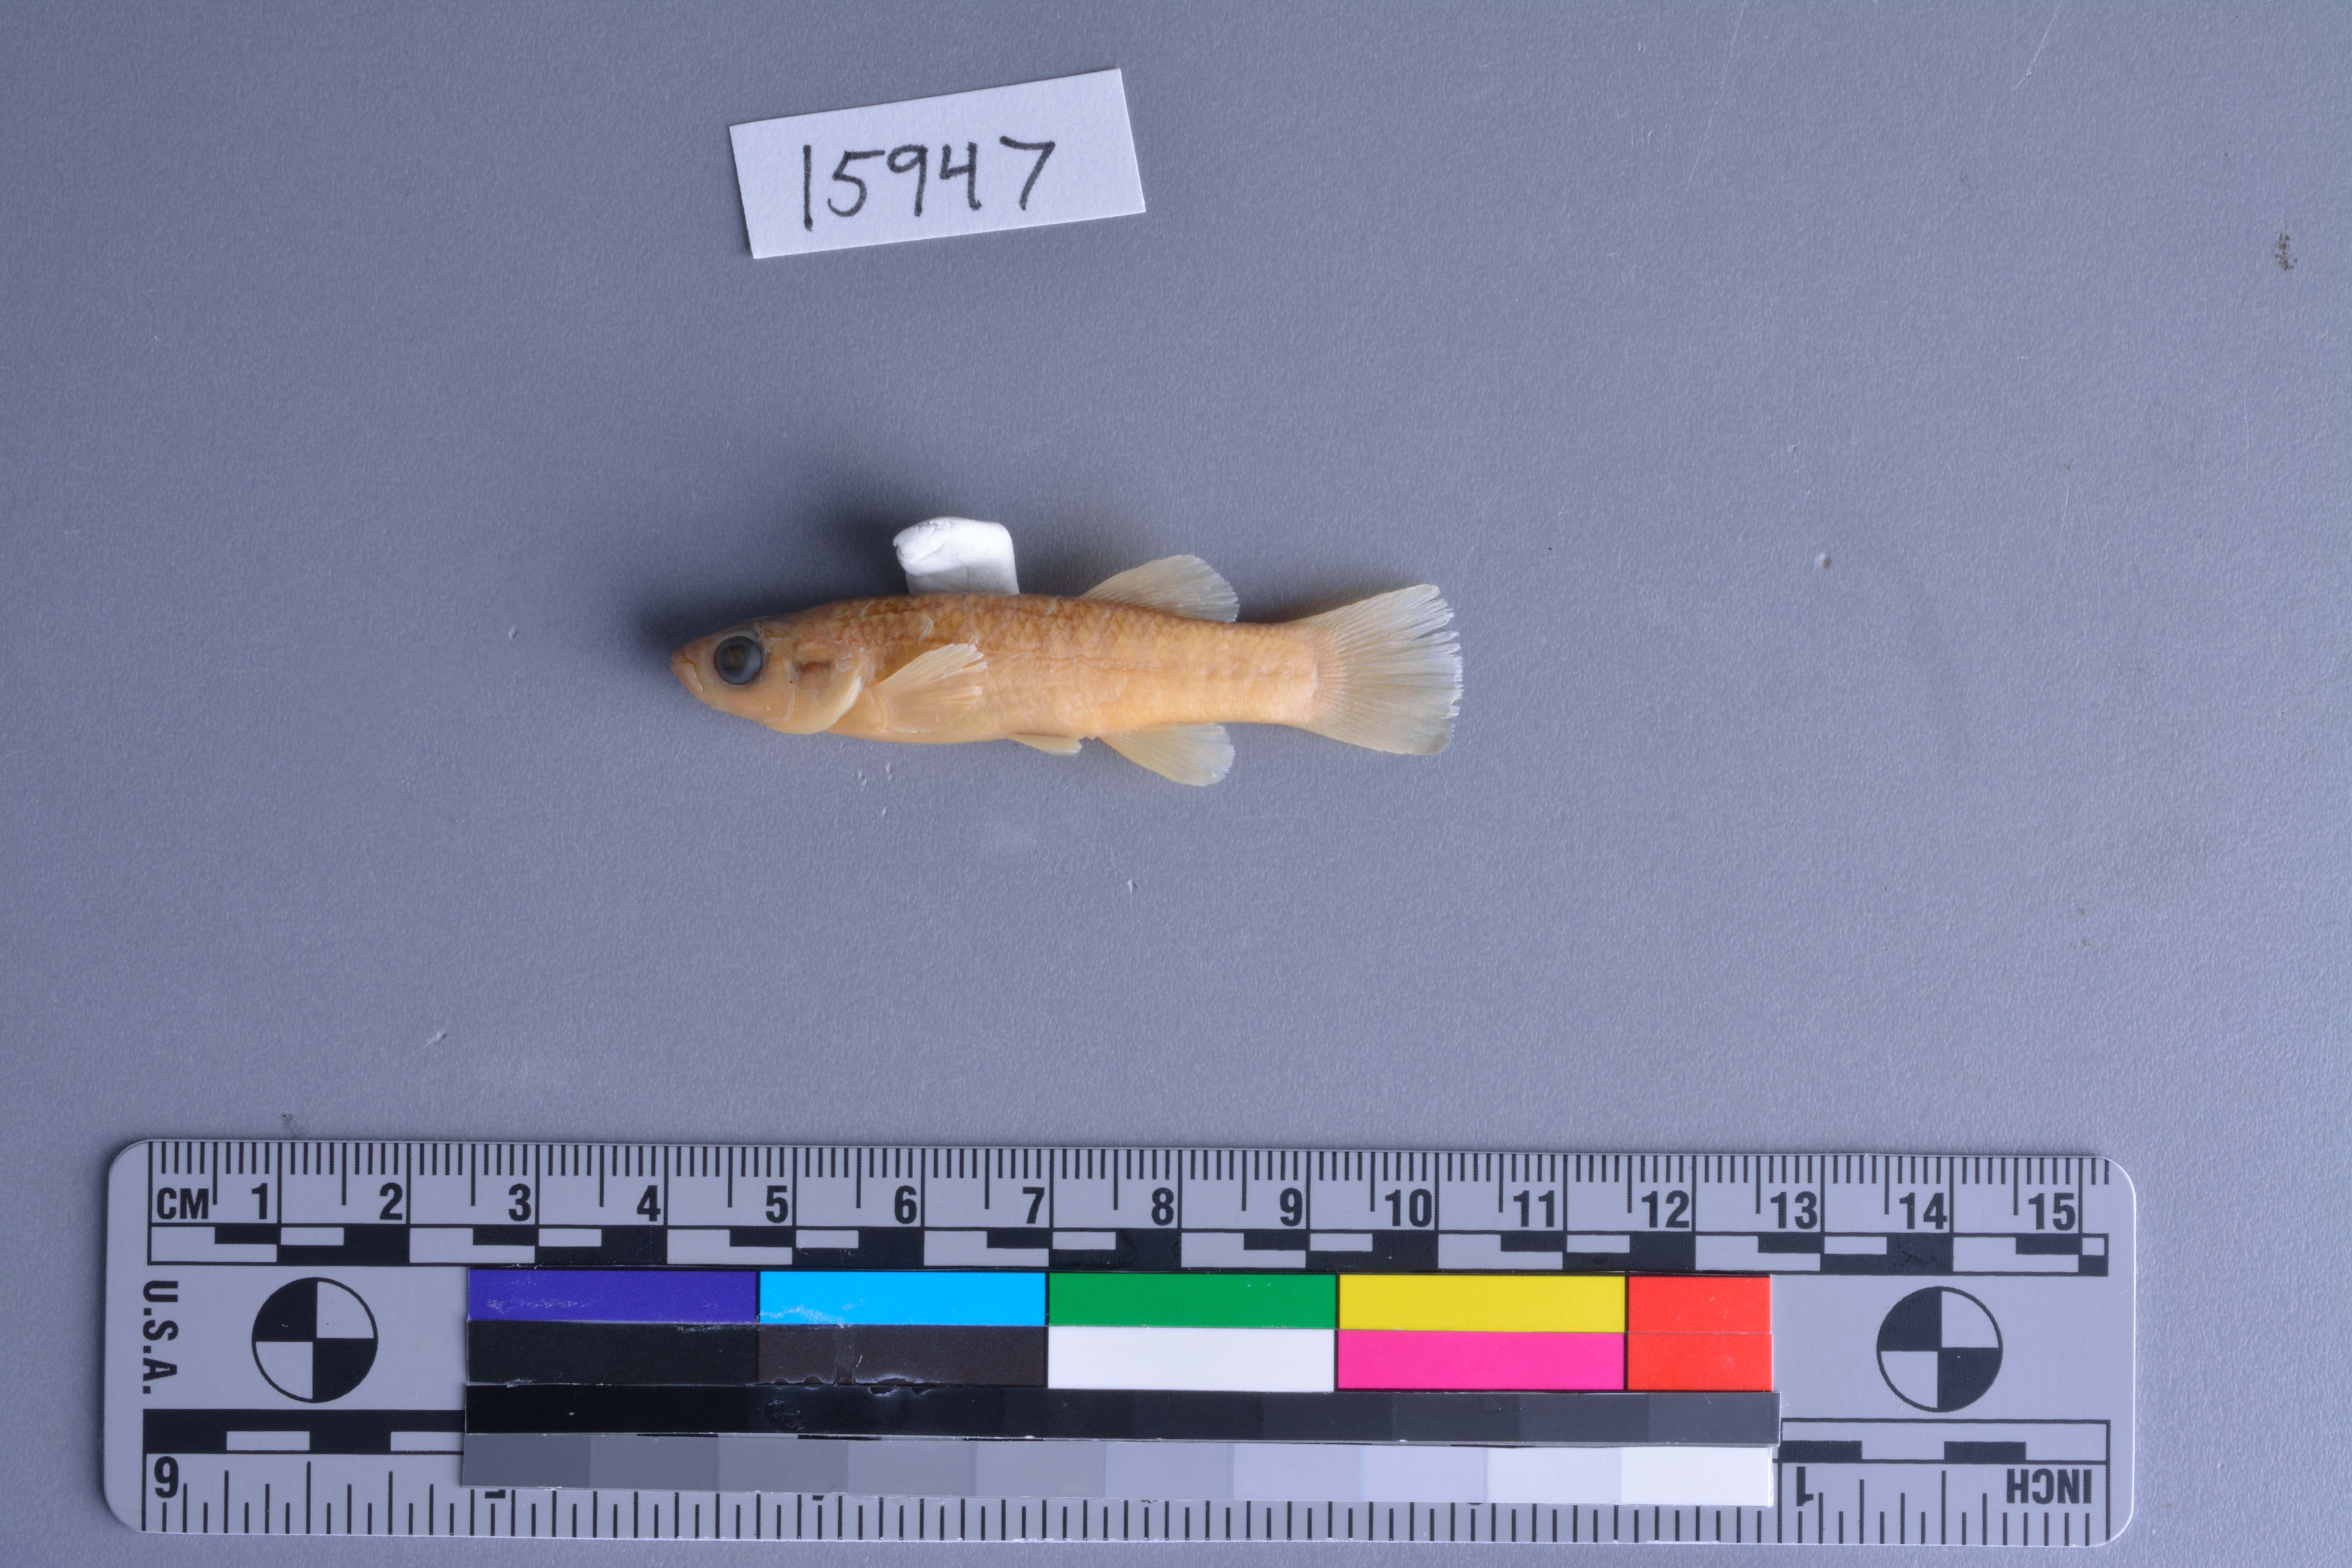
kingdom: Animalia
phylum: Chordata
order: Cyprinodontiformes
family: Fundulidae
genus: Fundulus
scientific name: Fundulus grandis
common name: Gulf killifish
